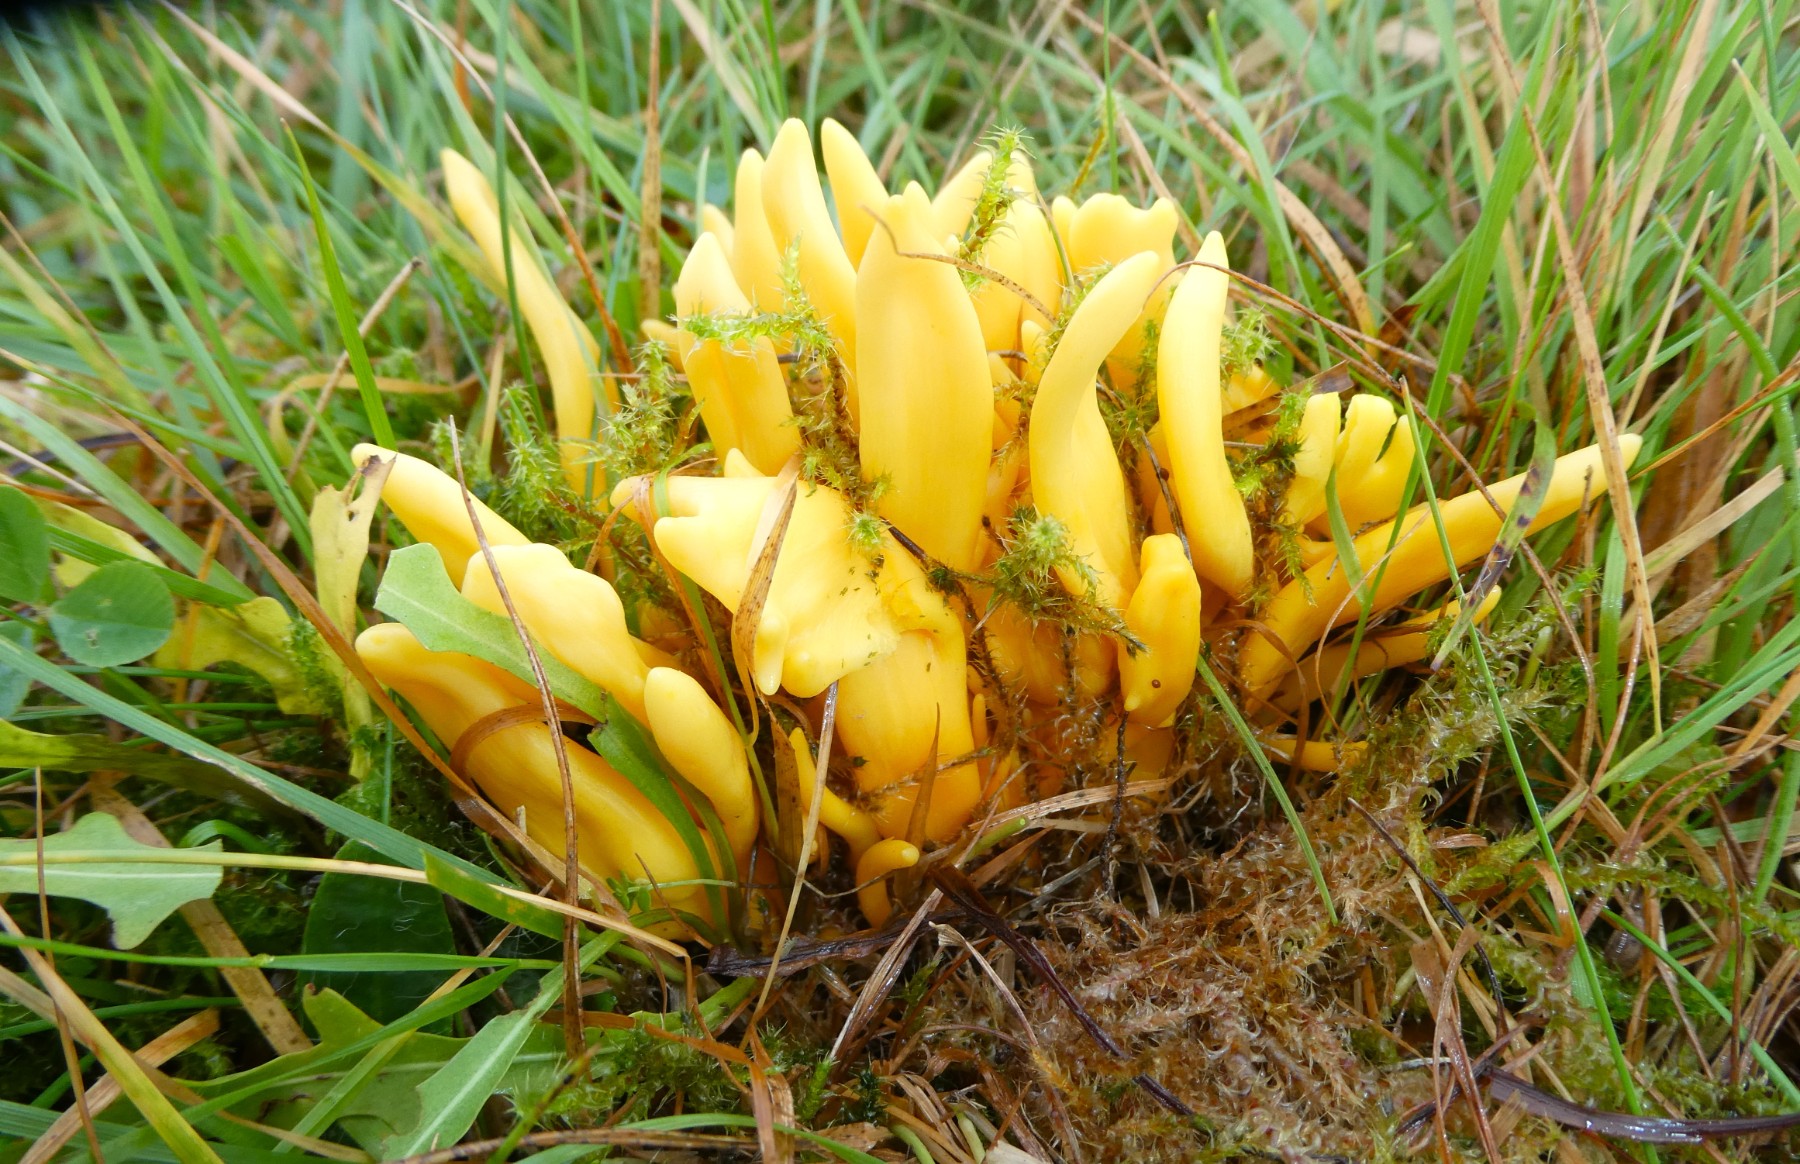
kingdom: Fungi
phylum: Basidiomycota
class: Agaricomycetes
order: Agaricales
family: Clavariaceae
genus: Clavulinopsis
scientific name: Clavulinopsis fusiformis
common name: tenformet køllesvamp
